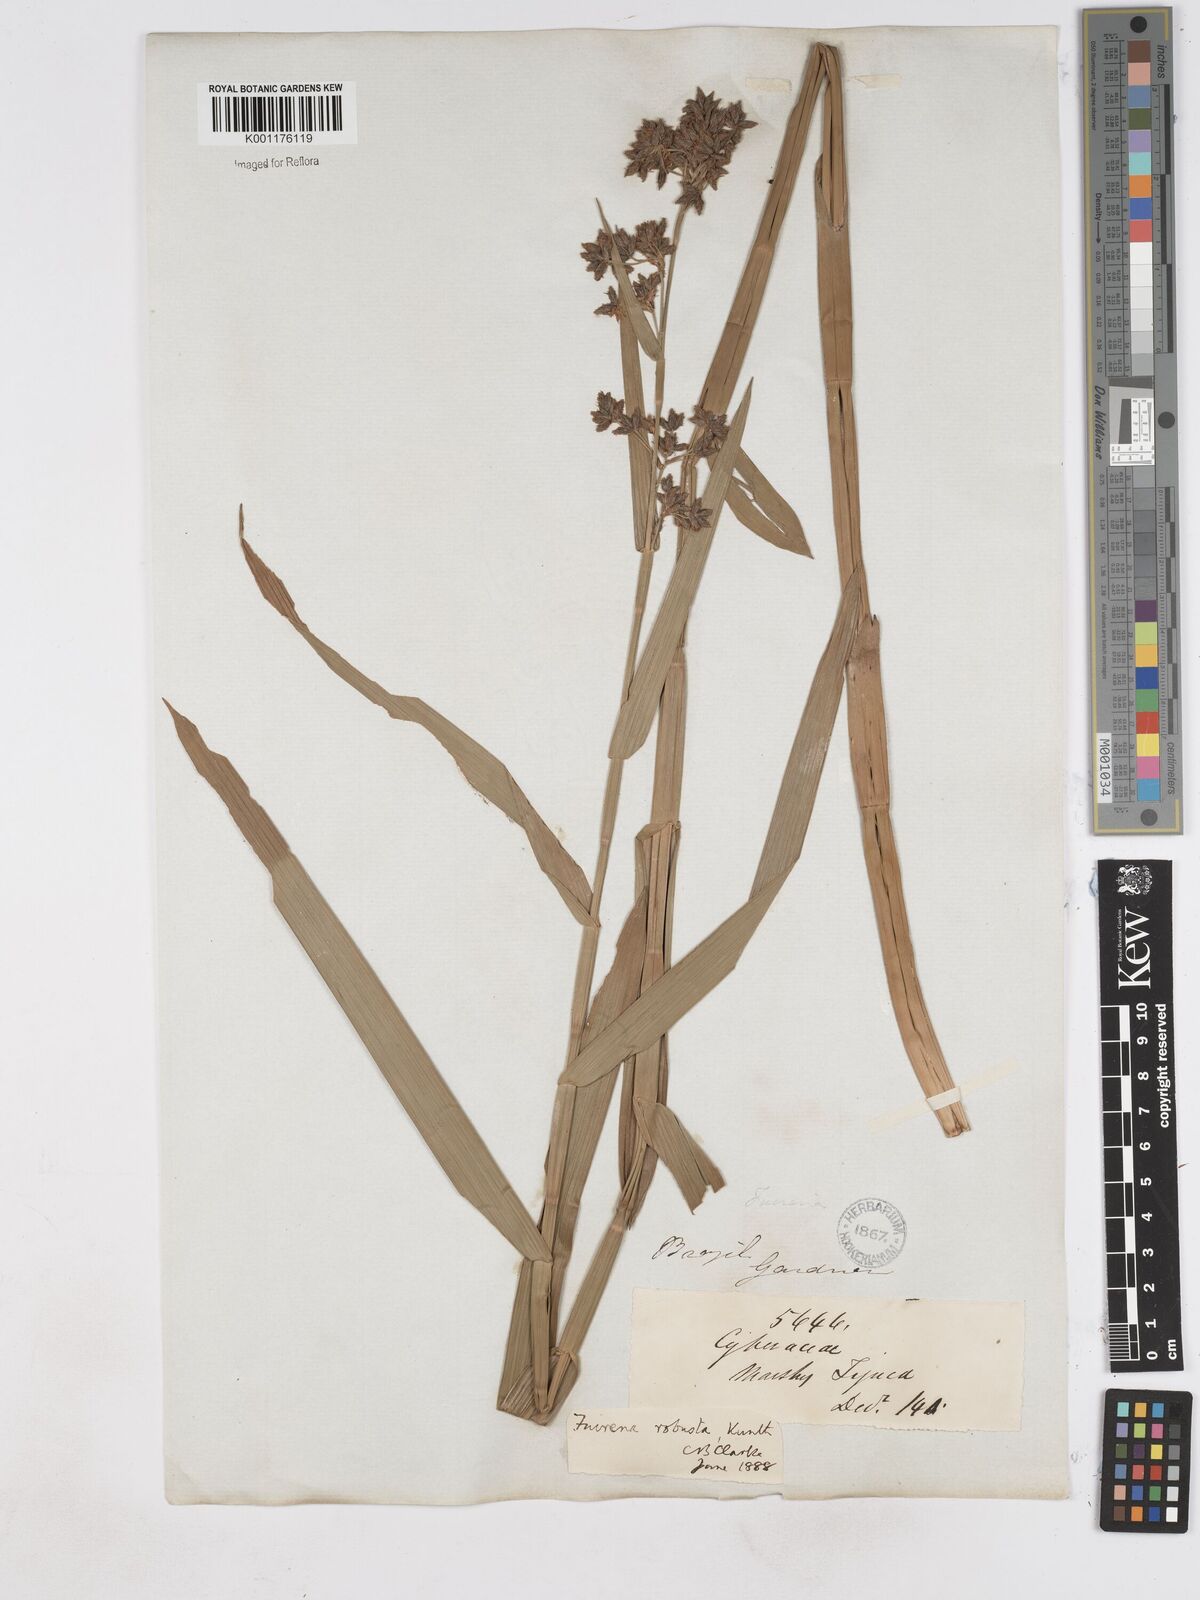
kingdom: Plantae
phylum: Tracheophyta
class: Liliopsida
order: Poales
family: Cyperaceae
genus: Fuirena
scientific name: Fuirena robusta
